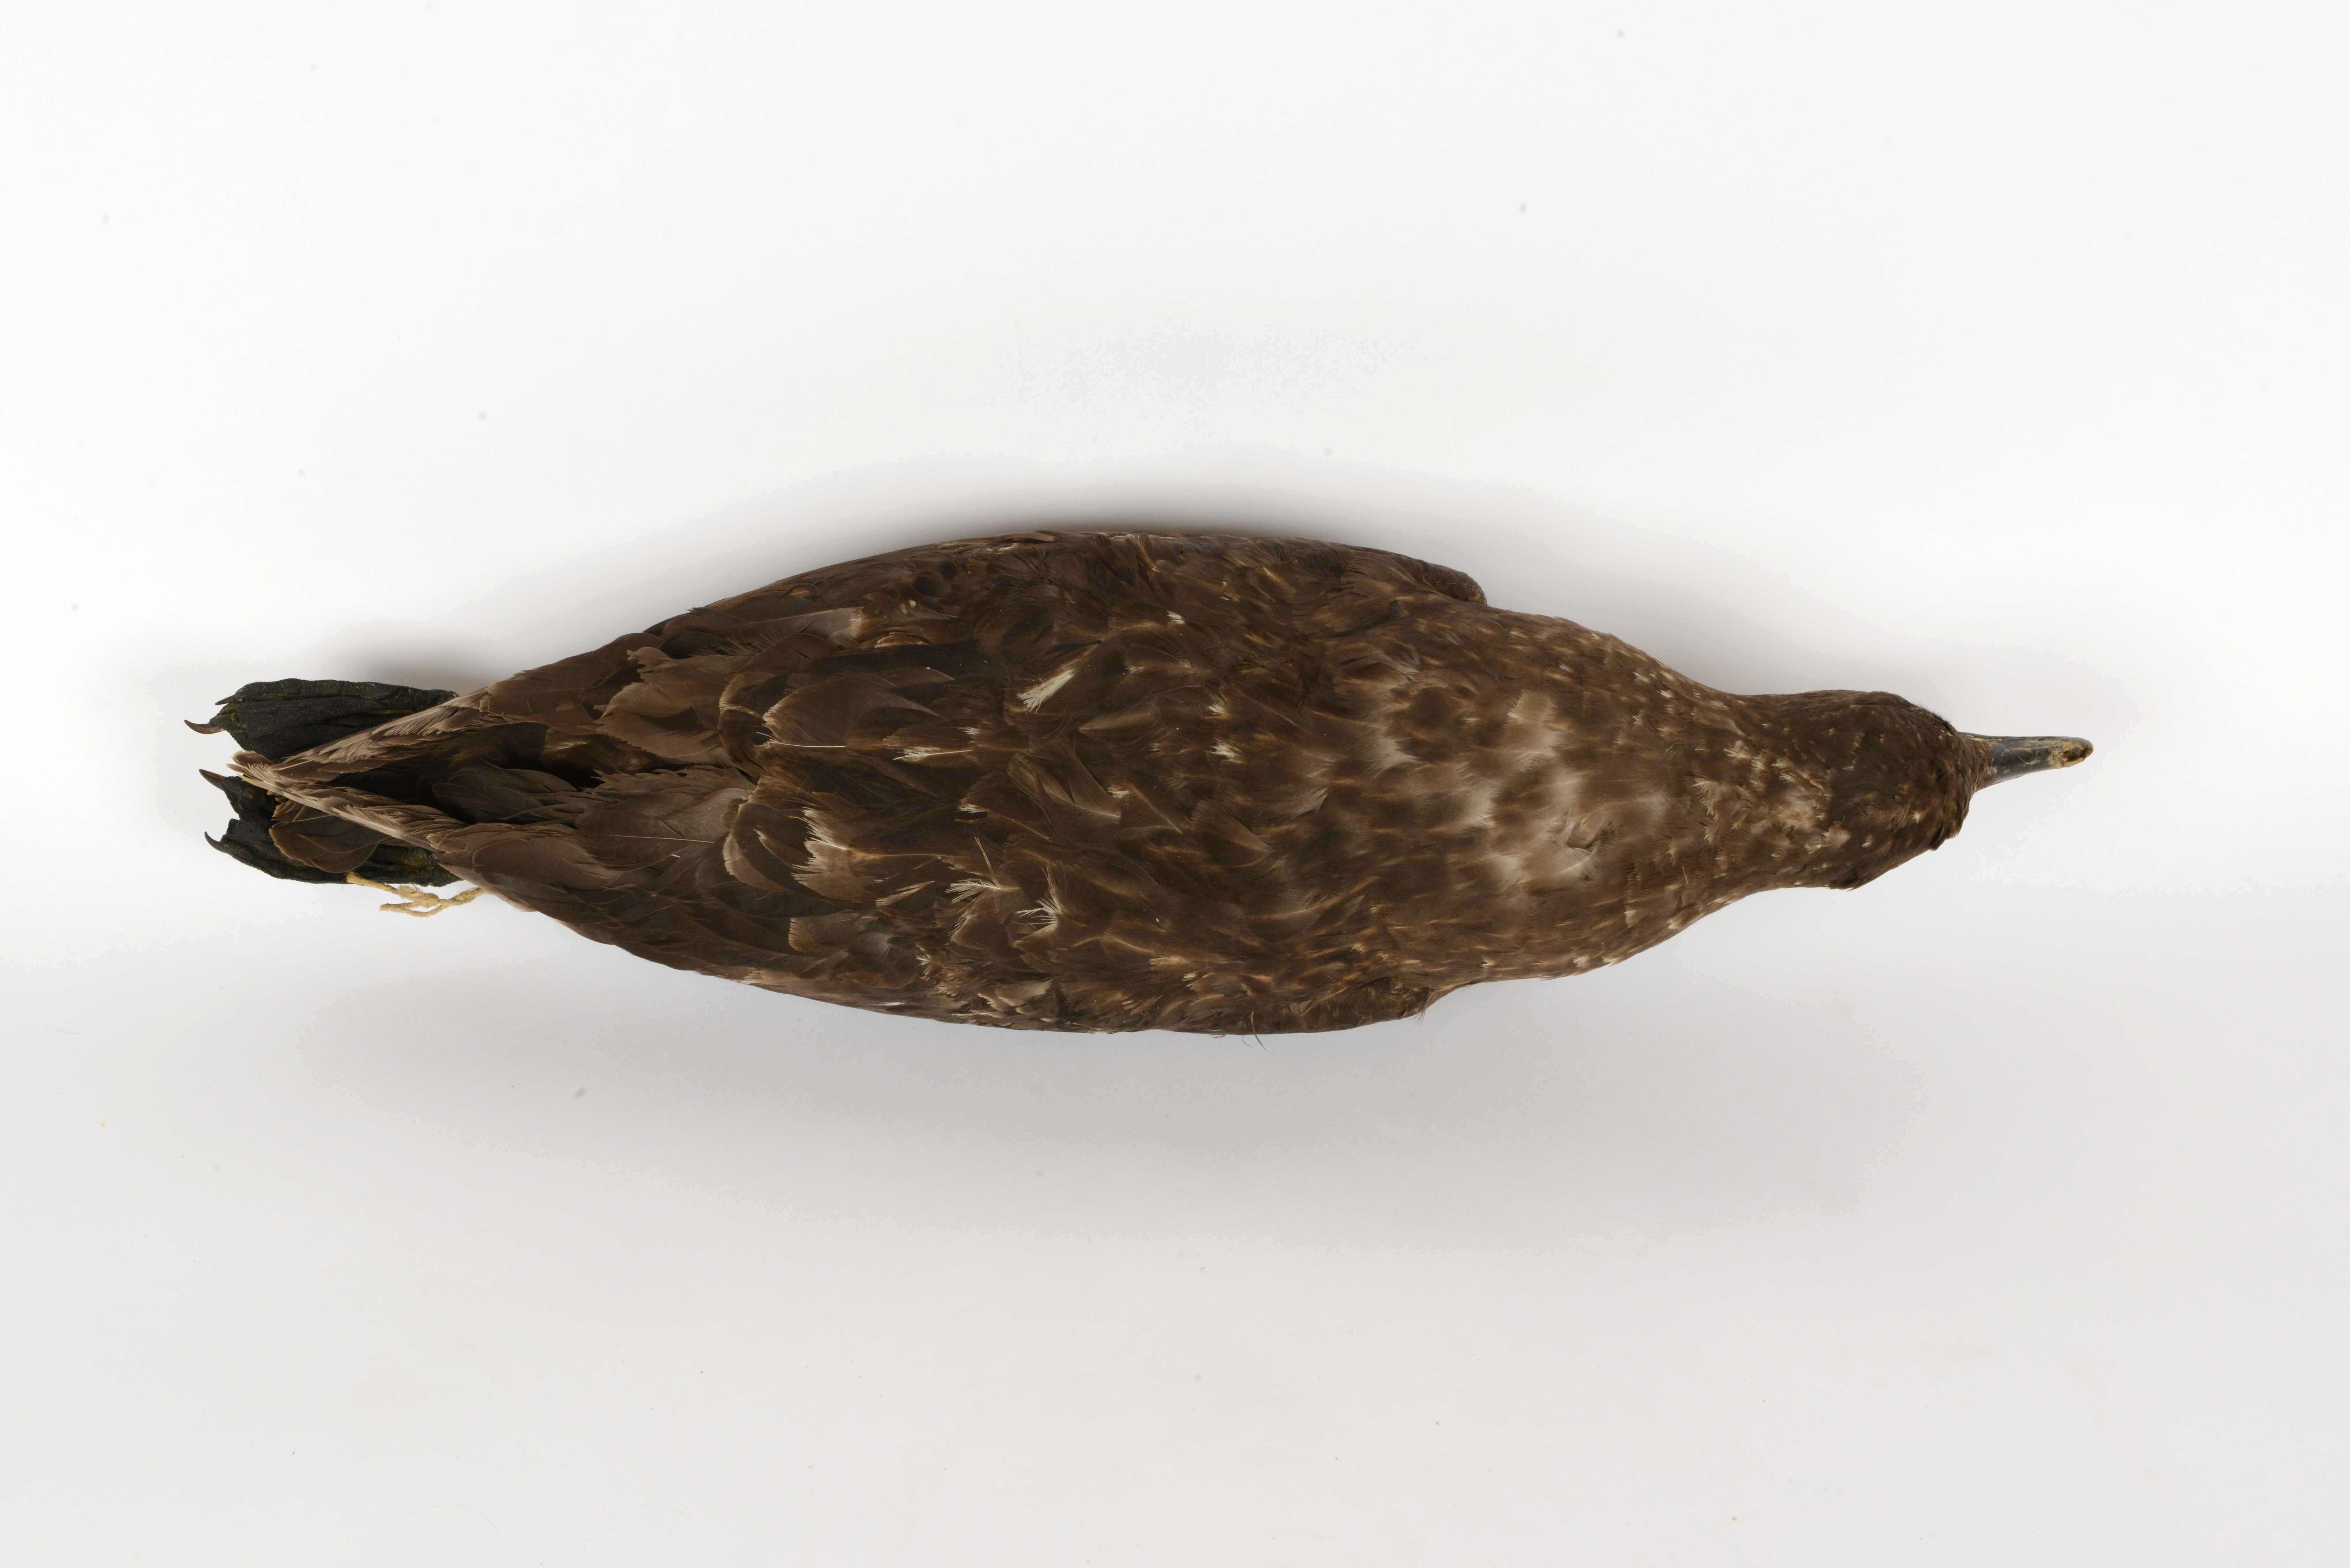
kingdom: Animalia
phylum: Chordata
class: Aves
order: Charadriiformes
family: Stercorariidae
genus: Stercorarius
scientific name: Stercorarius antarcticus
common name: Brown skua
